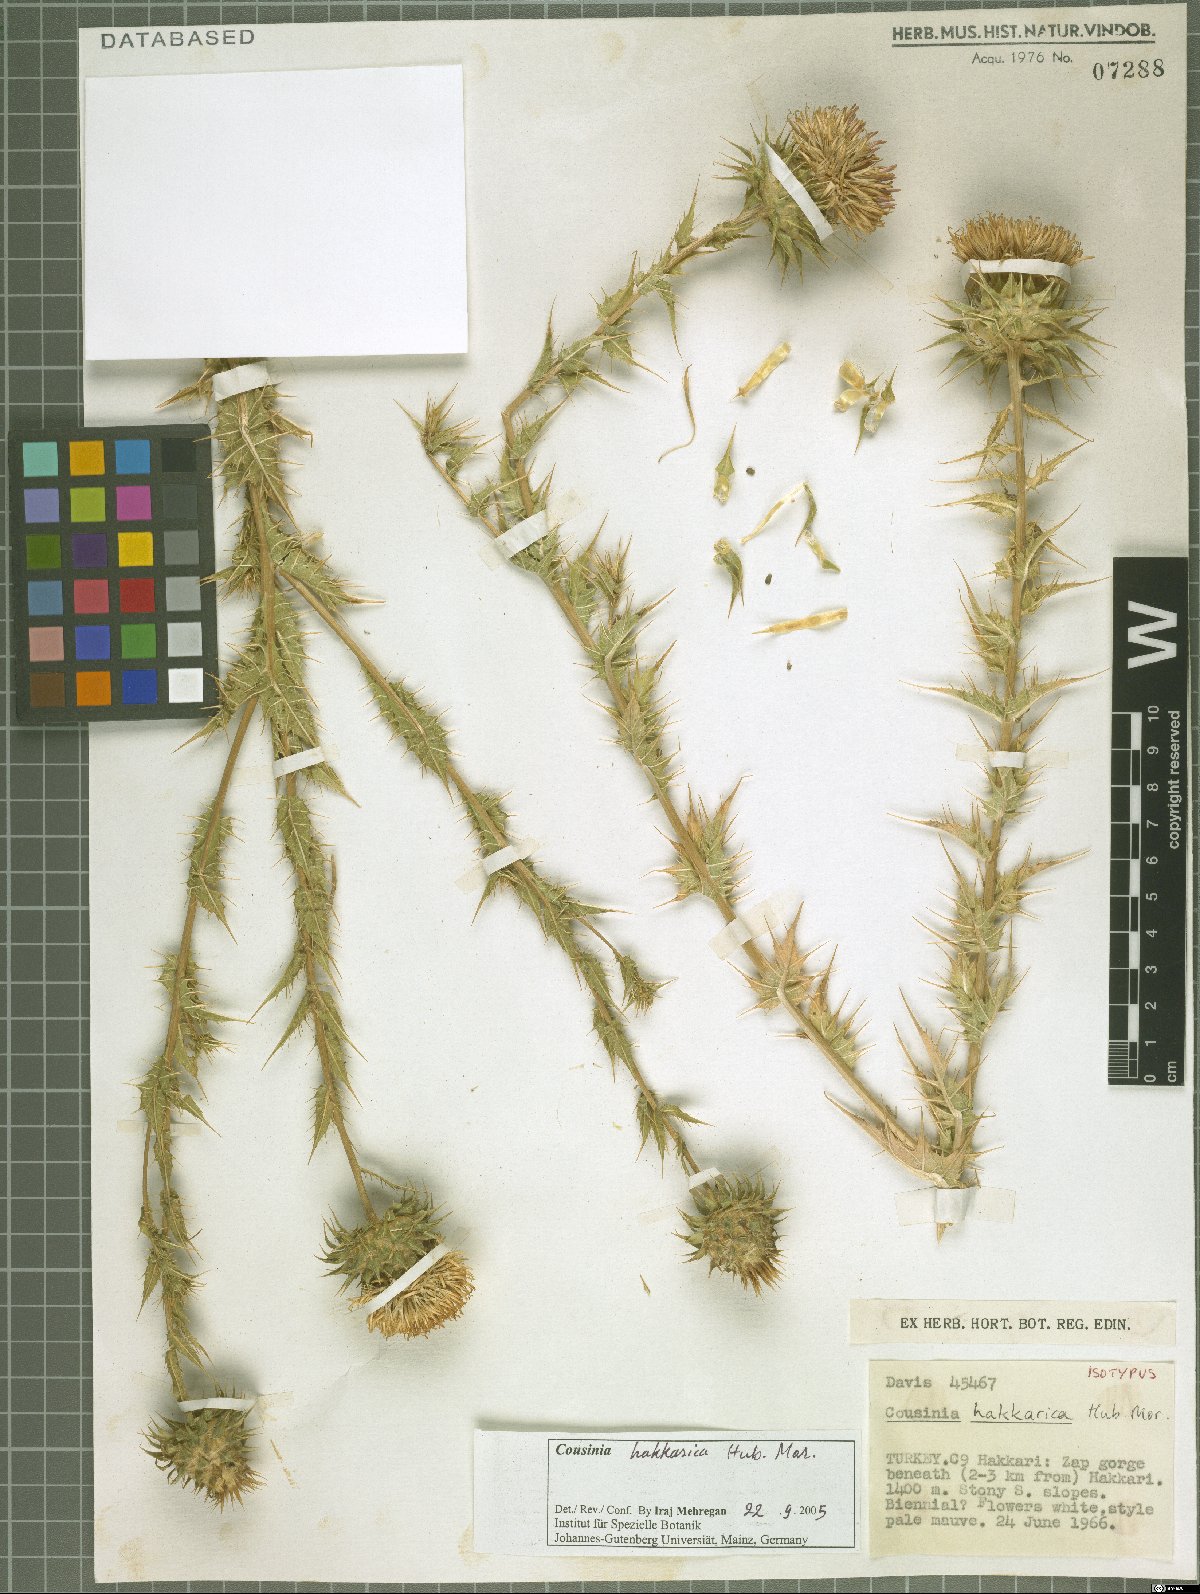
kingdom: Plantae
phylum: Tracheophyta
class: Magnoliopsida
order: Asterales
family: Asteraceae
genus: Cousinia
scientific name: Cousinia hakkarica
